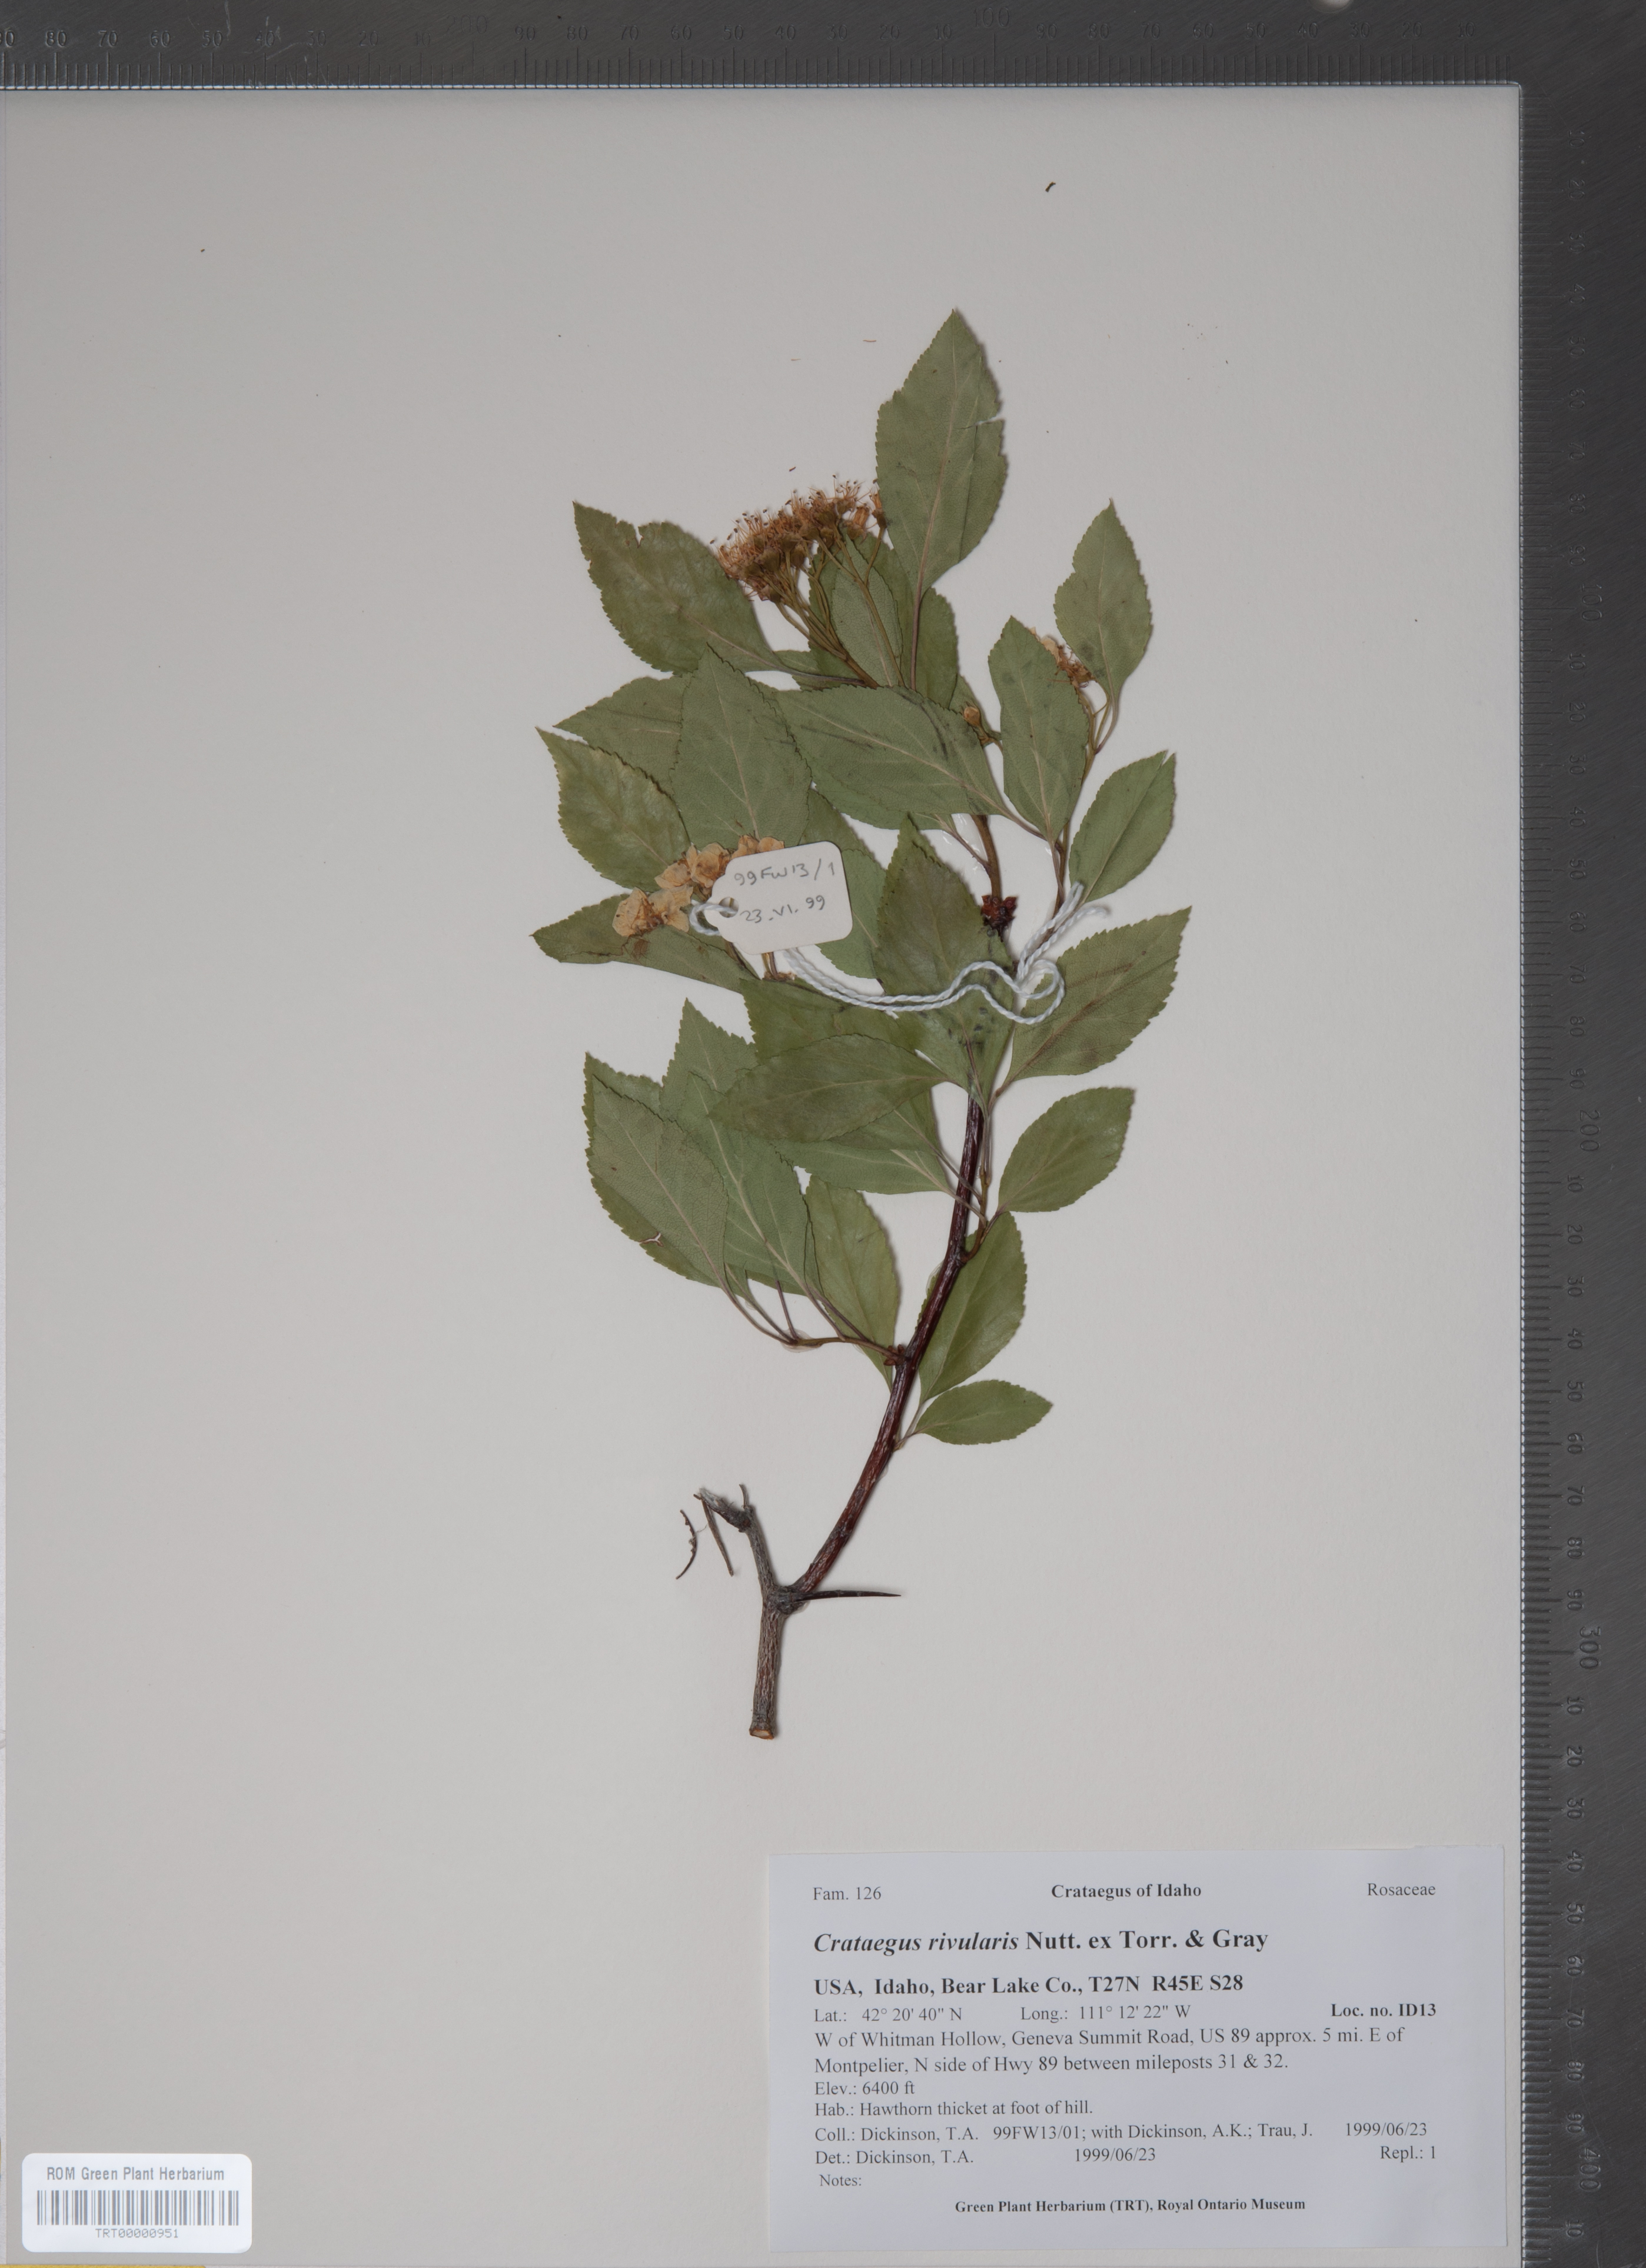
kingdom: Plantae
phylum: Tracheophyta
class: Magnoliopsida
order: Rosales
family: Rosaceae
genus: Crataegus
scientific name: Crataegus rivularis
